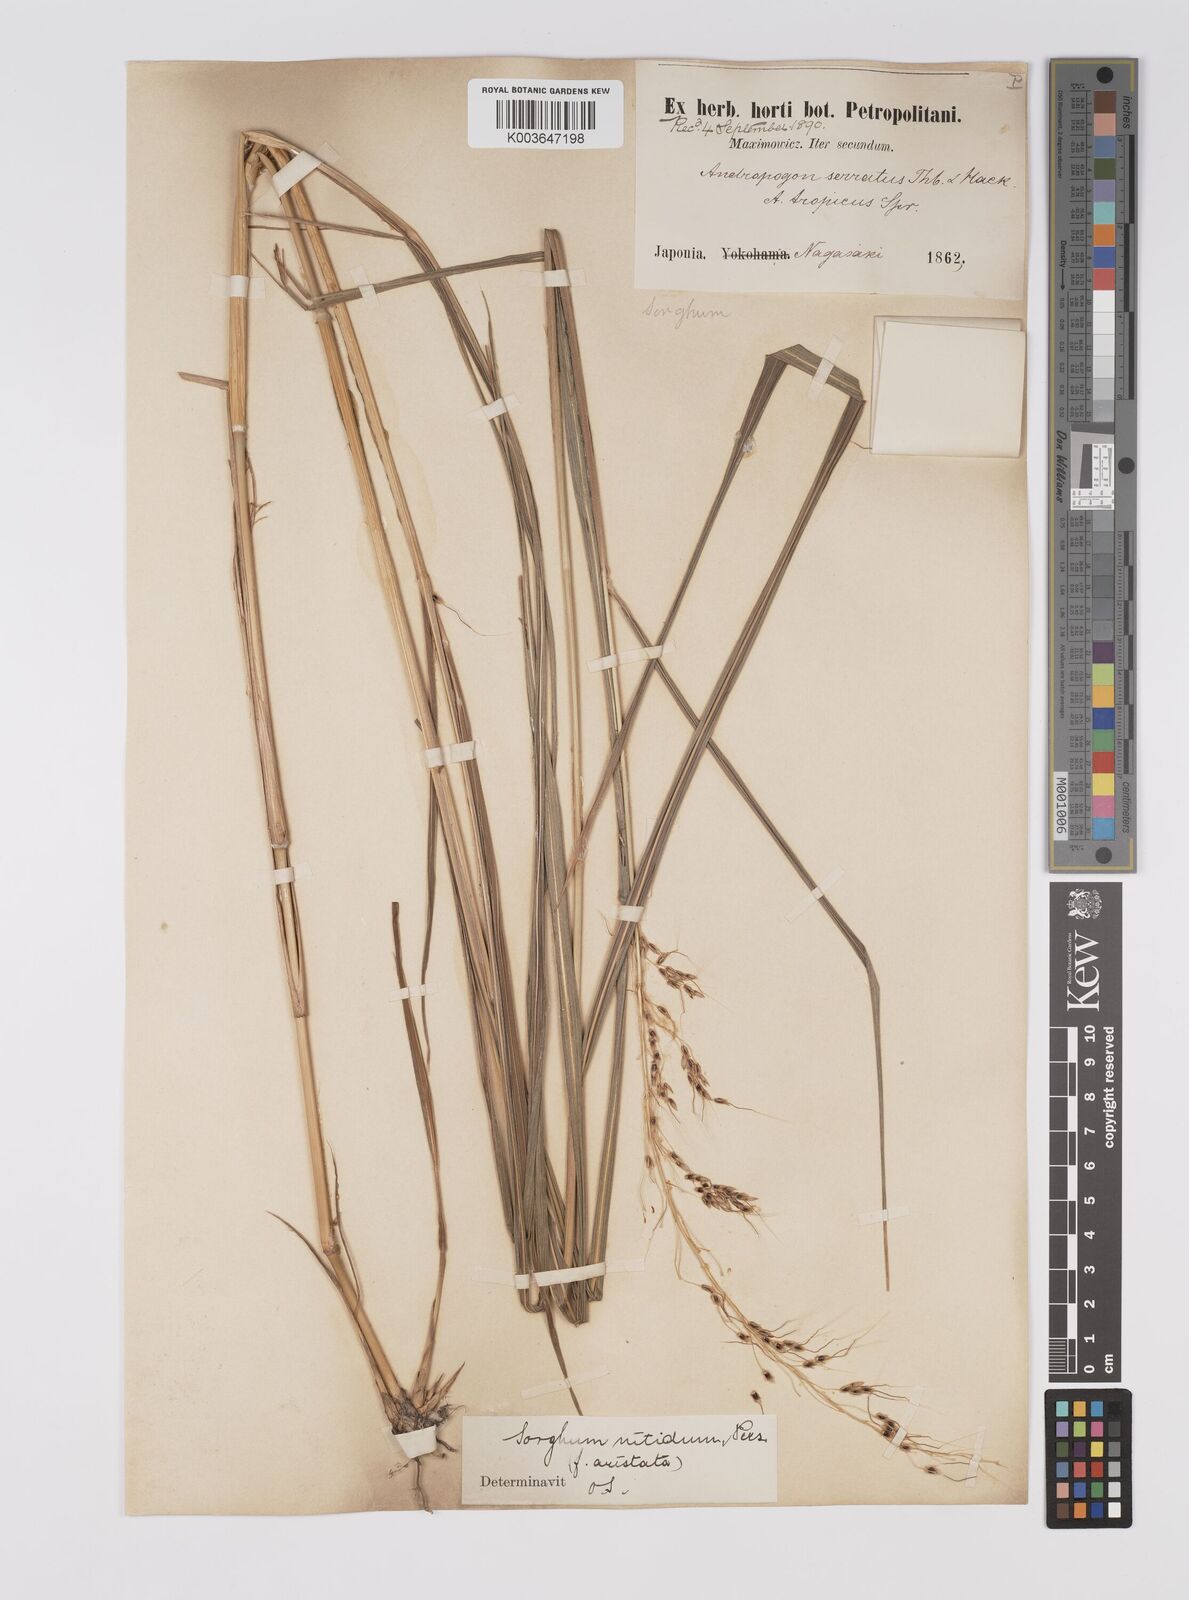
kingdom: Plantae
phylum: Tracheophyta
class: Liliopsida
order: Poales
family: Poaceae
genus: Sorghum
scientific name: Sorghum nitidum
